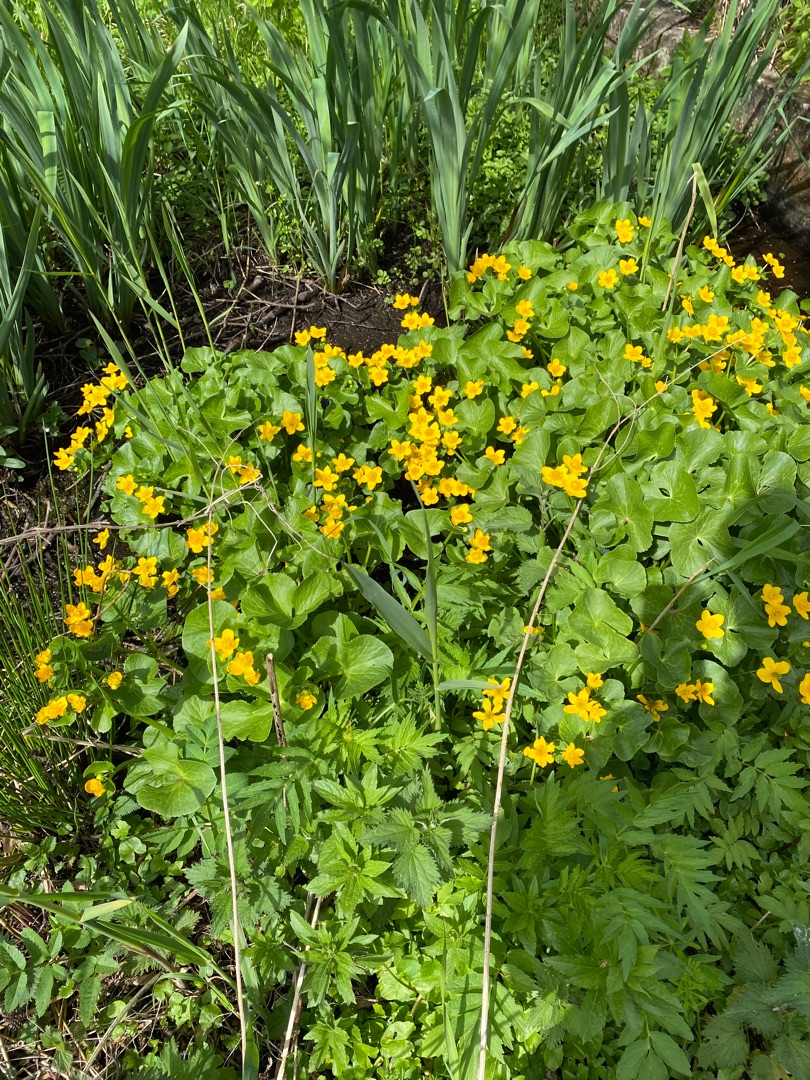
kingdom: Plantae
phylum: Tracheophyta
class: Magnoliopsida
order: Ranunculales
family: Ranunculaceae
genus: Caltha
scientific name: Caltha palustris
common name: Eng-kabbeleje
